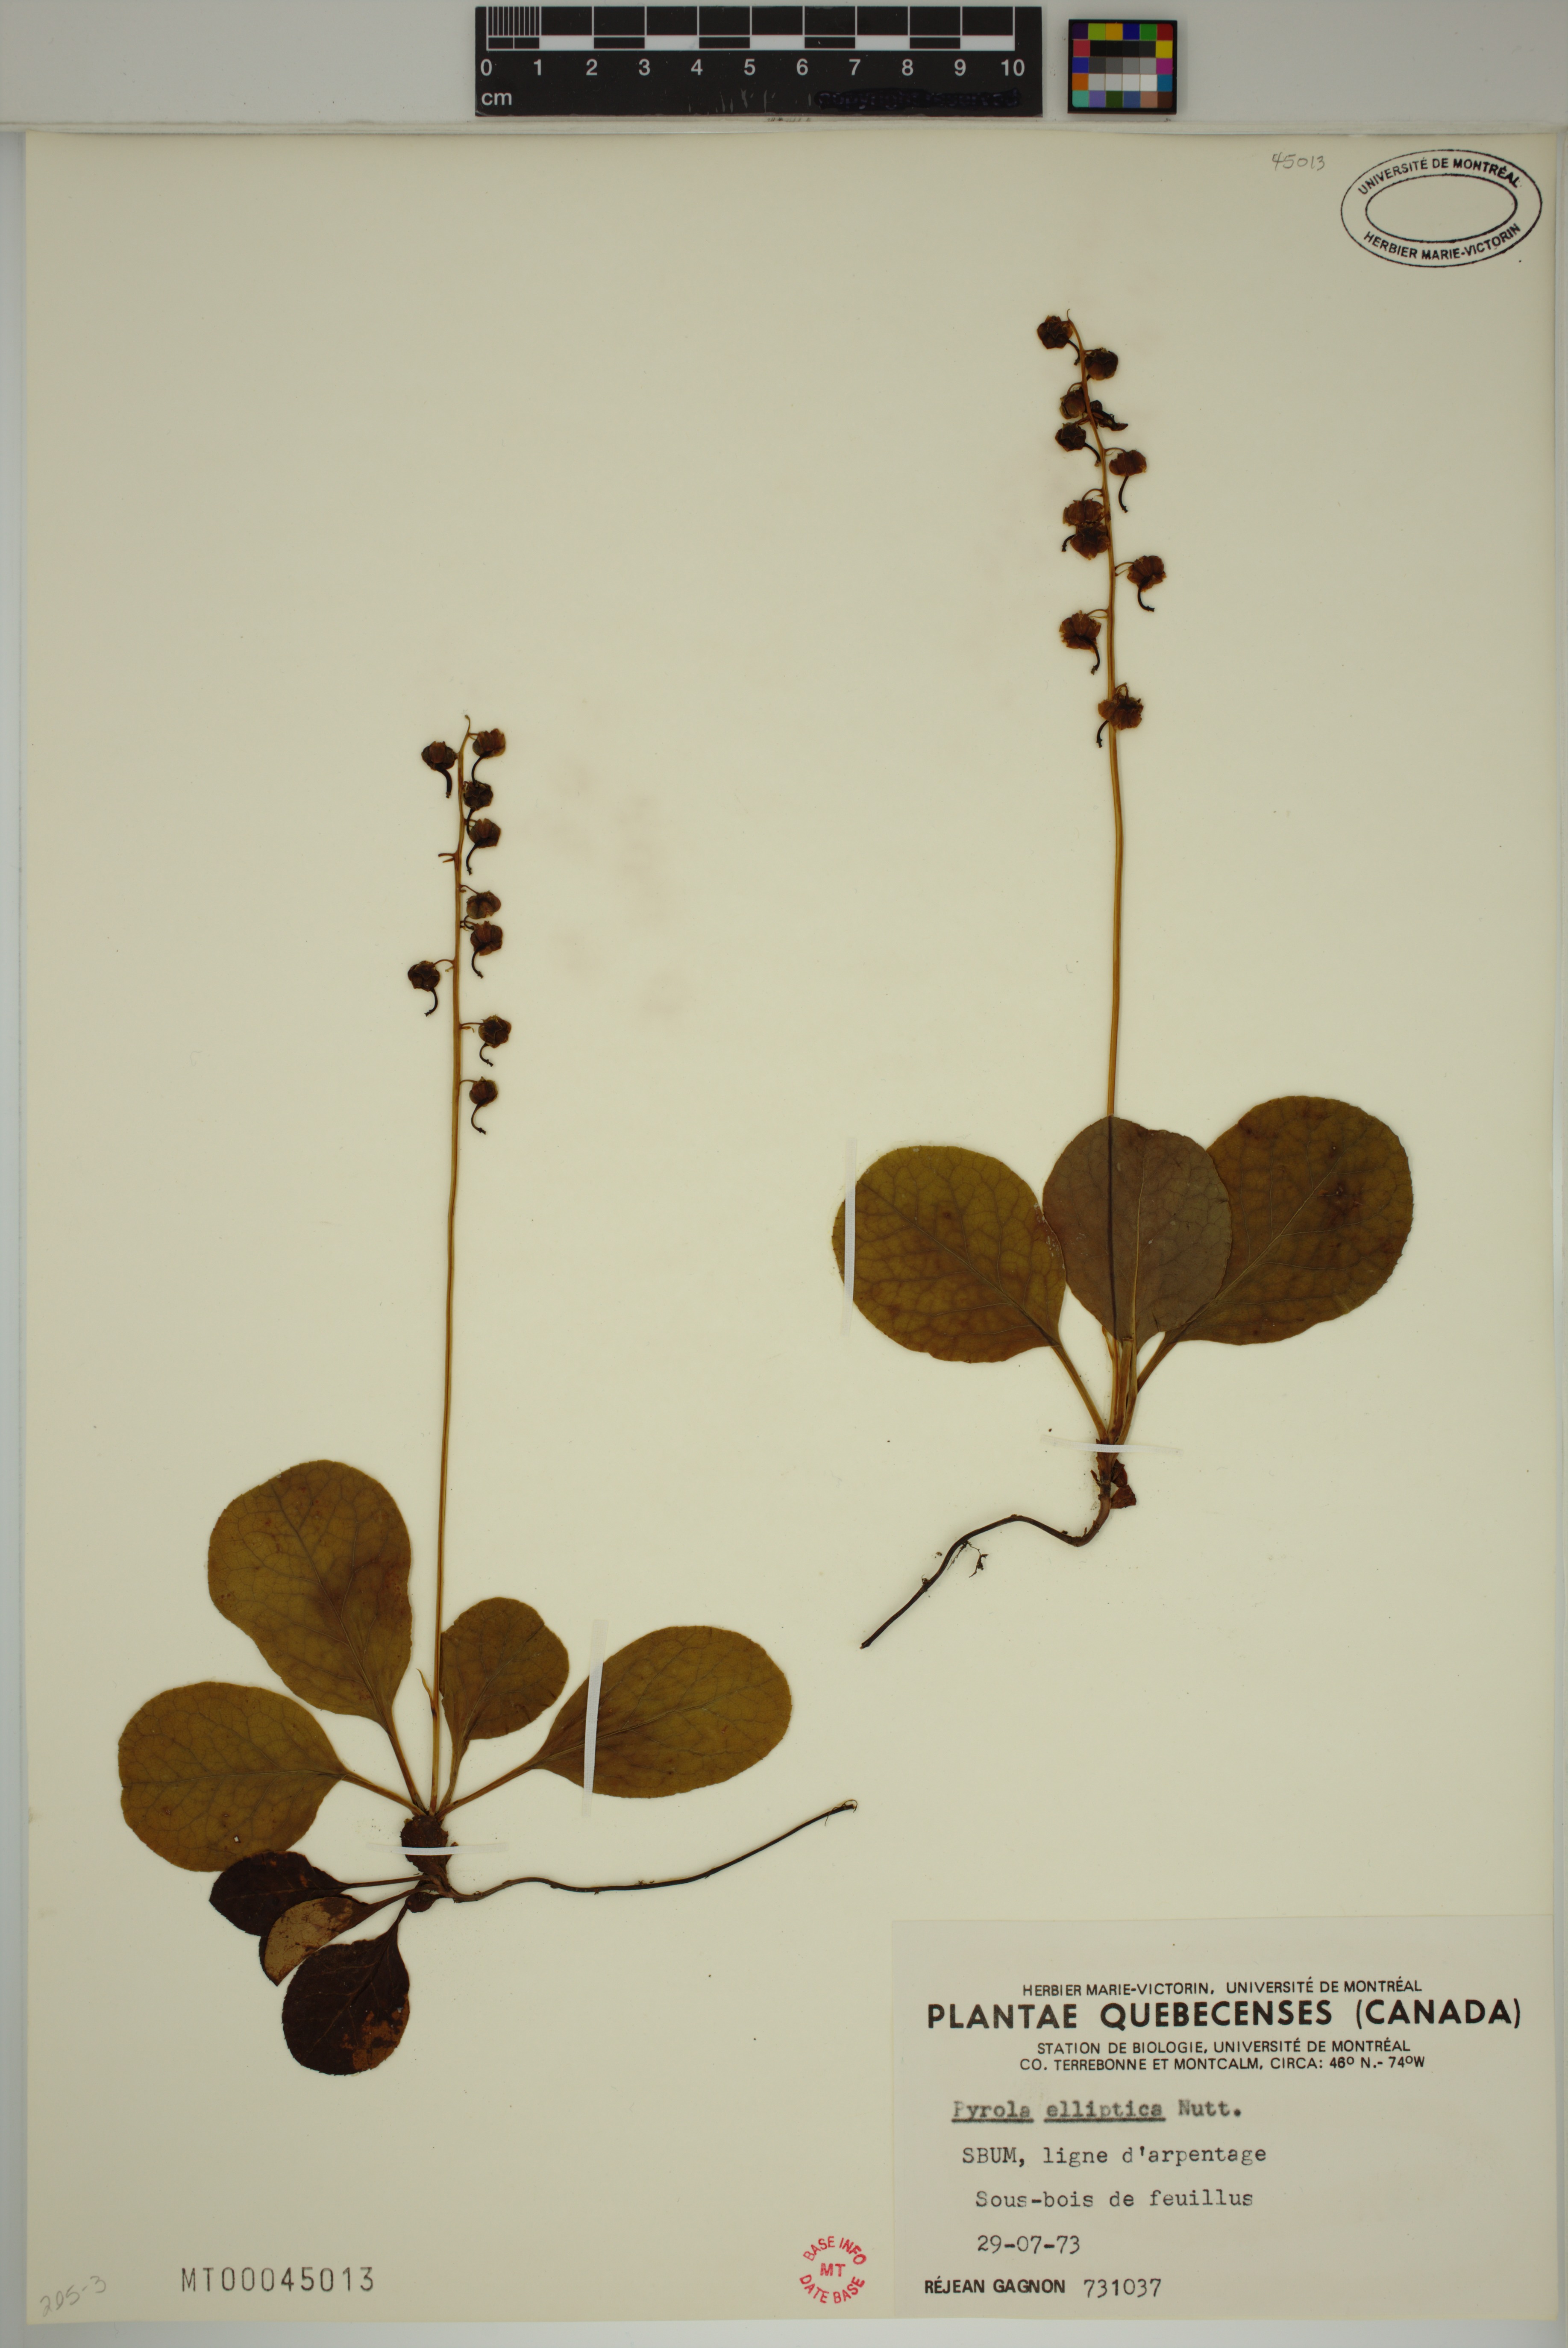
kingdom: Plantae
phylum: Tracheophyta
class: Magnoliopsida
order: Ericales
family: Ericaceae
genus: Pyrola
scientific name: Pyrola elliptica
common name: Shinleaf
